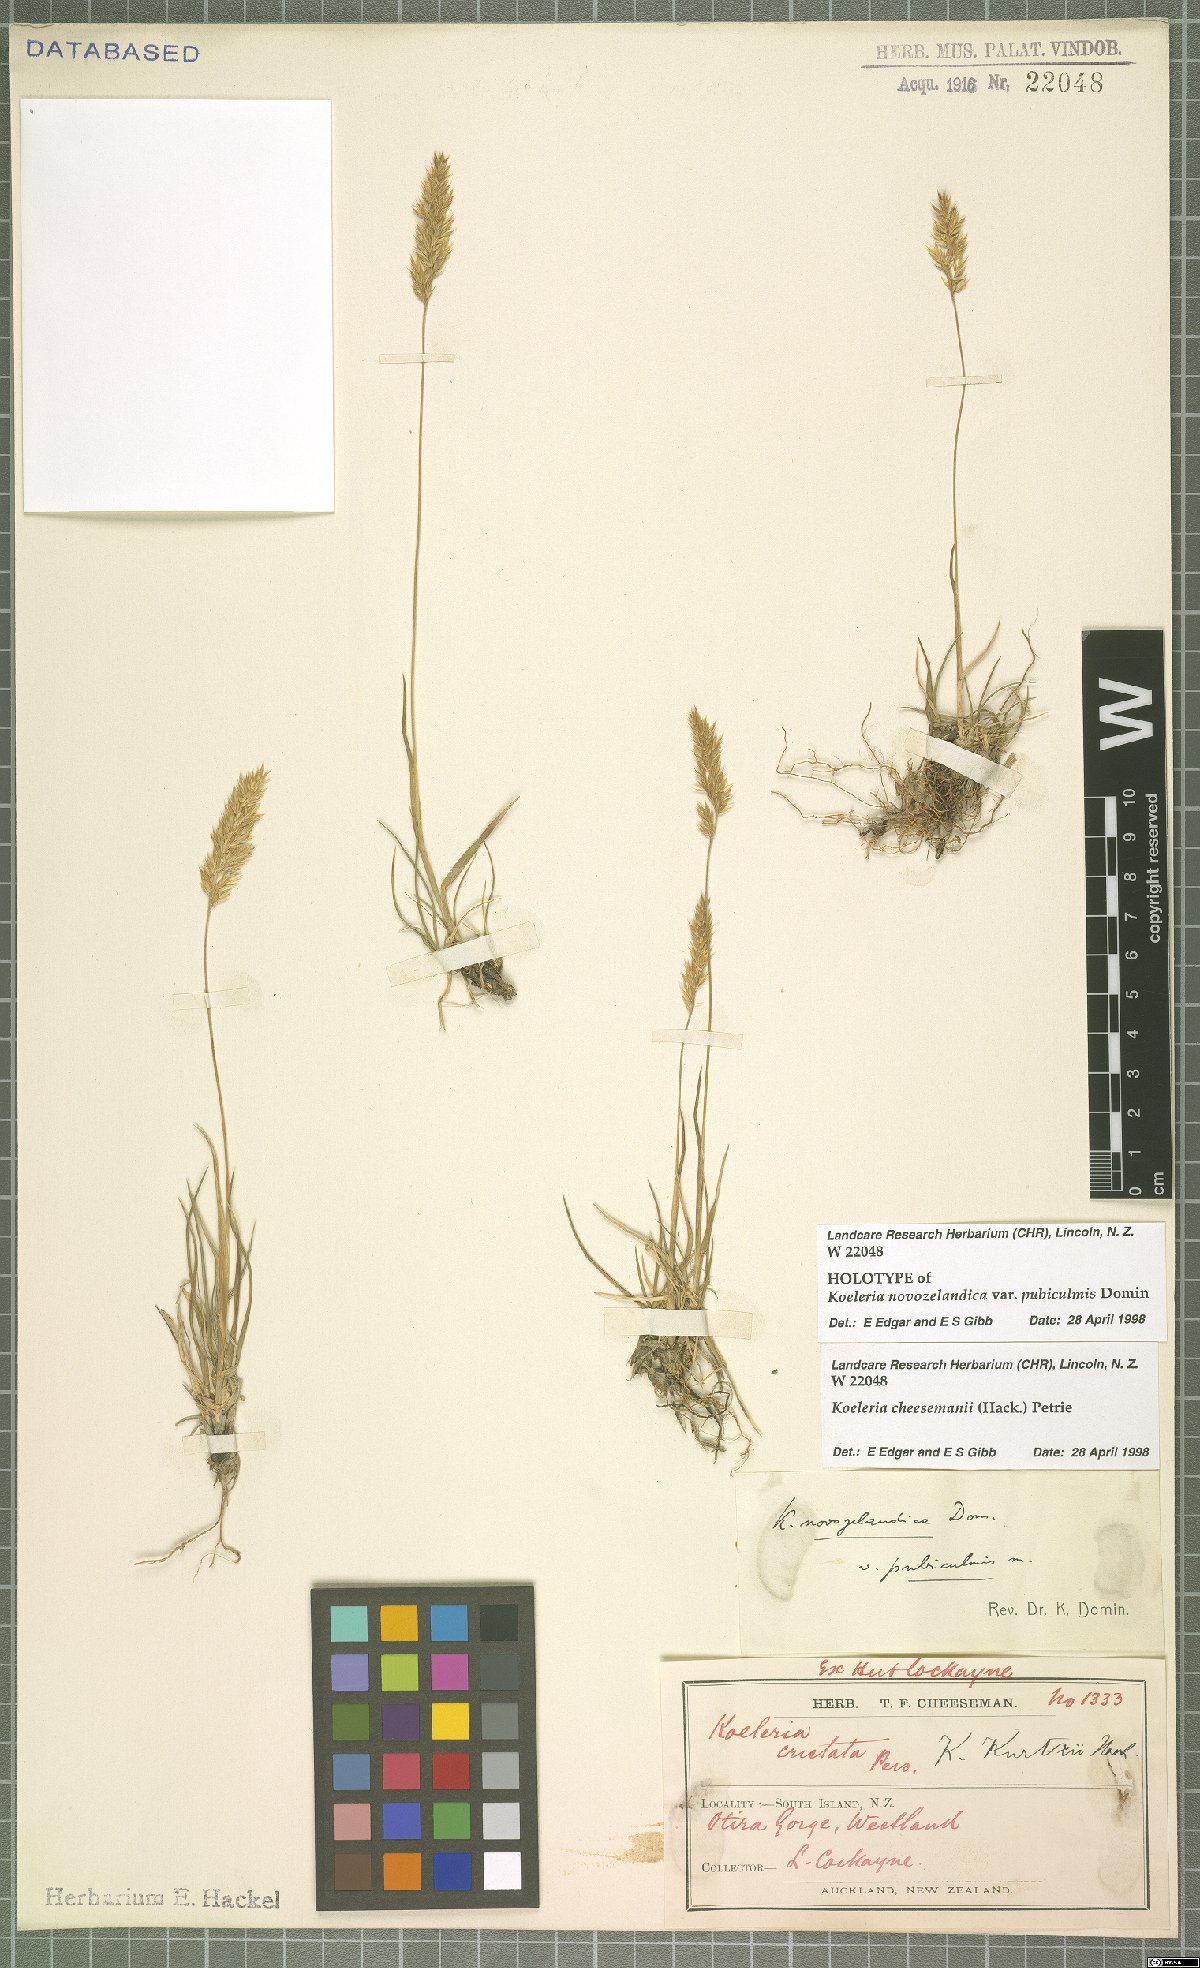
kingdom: Plantae
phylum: Tracheophyta
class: Liliopsida
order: Poales
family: Poaceae
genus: Koeleria
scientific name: Koeleria cheesemanii
